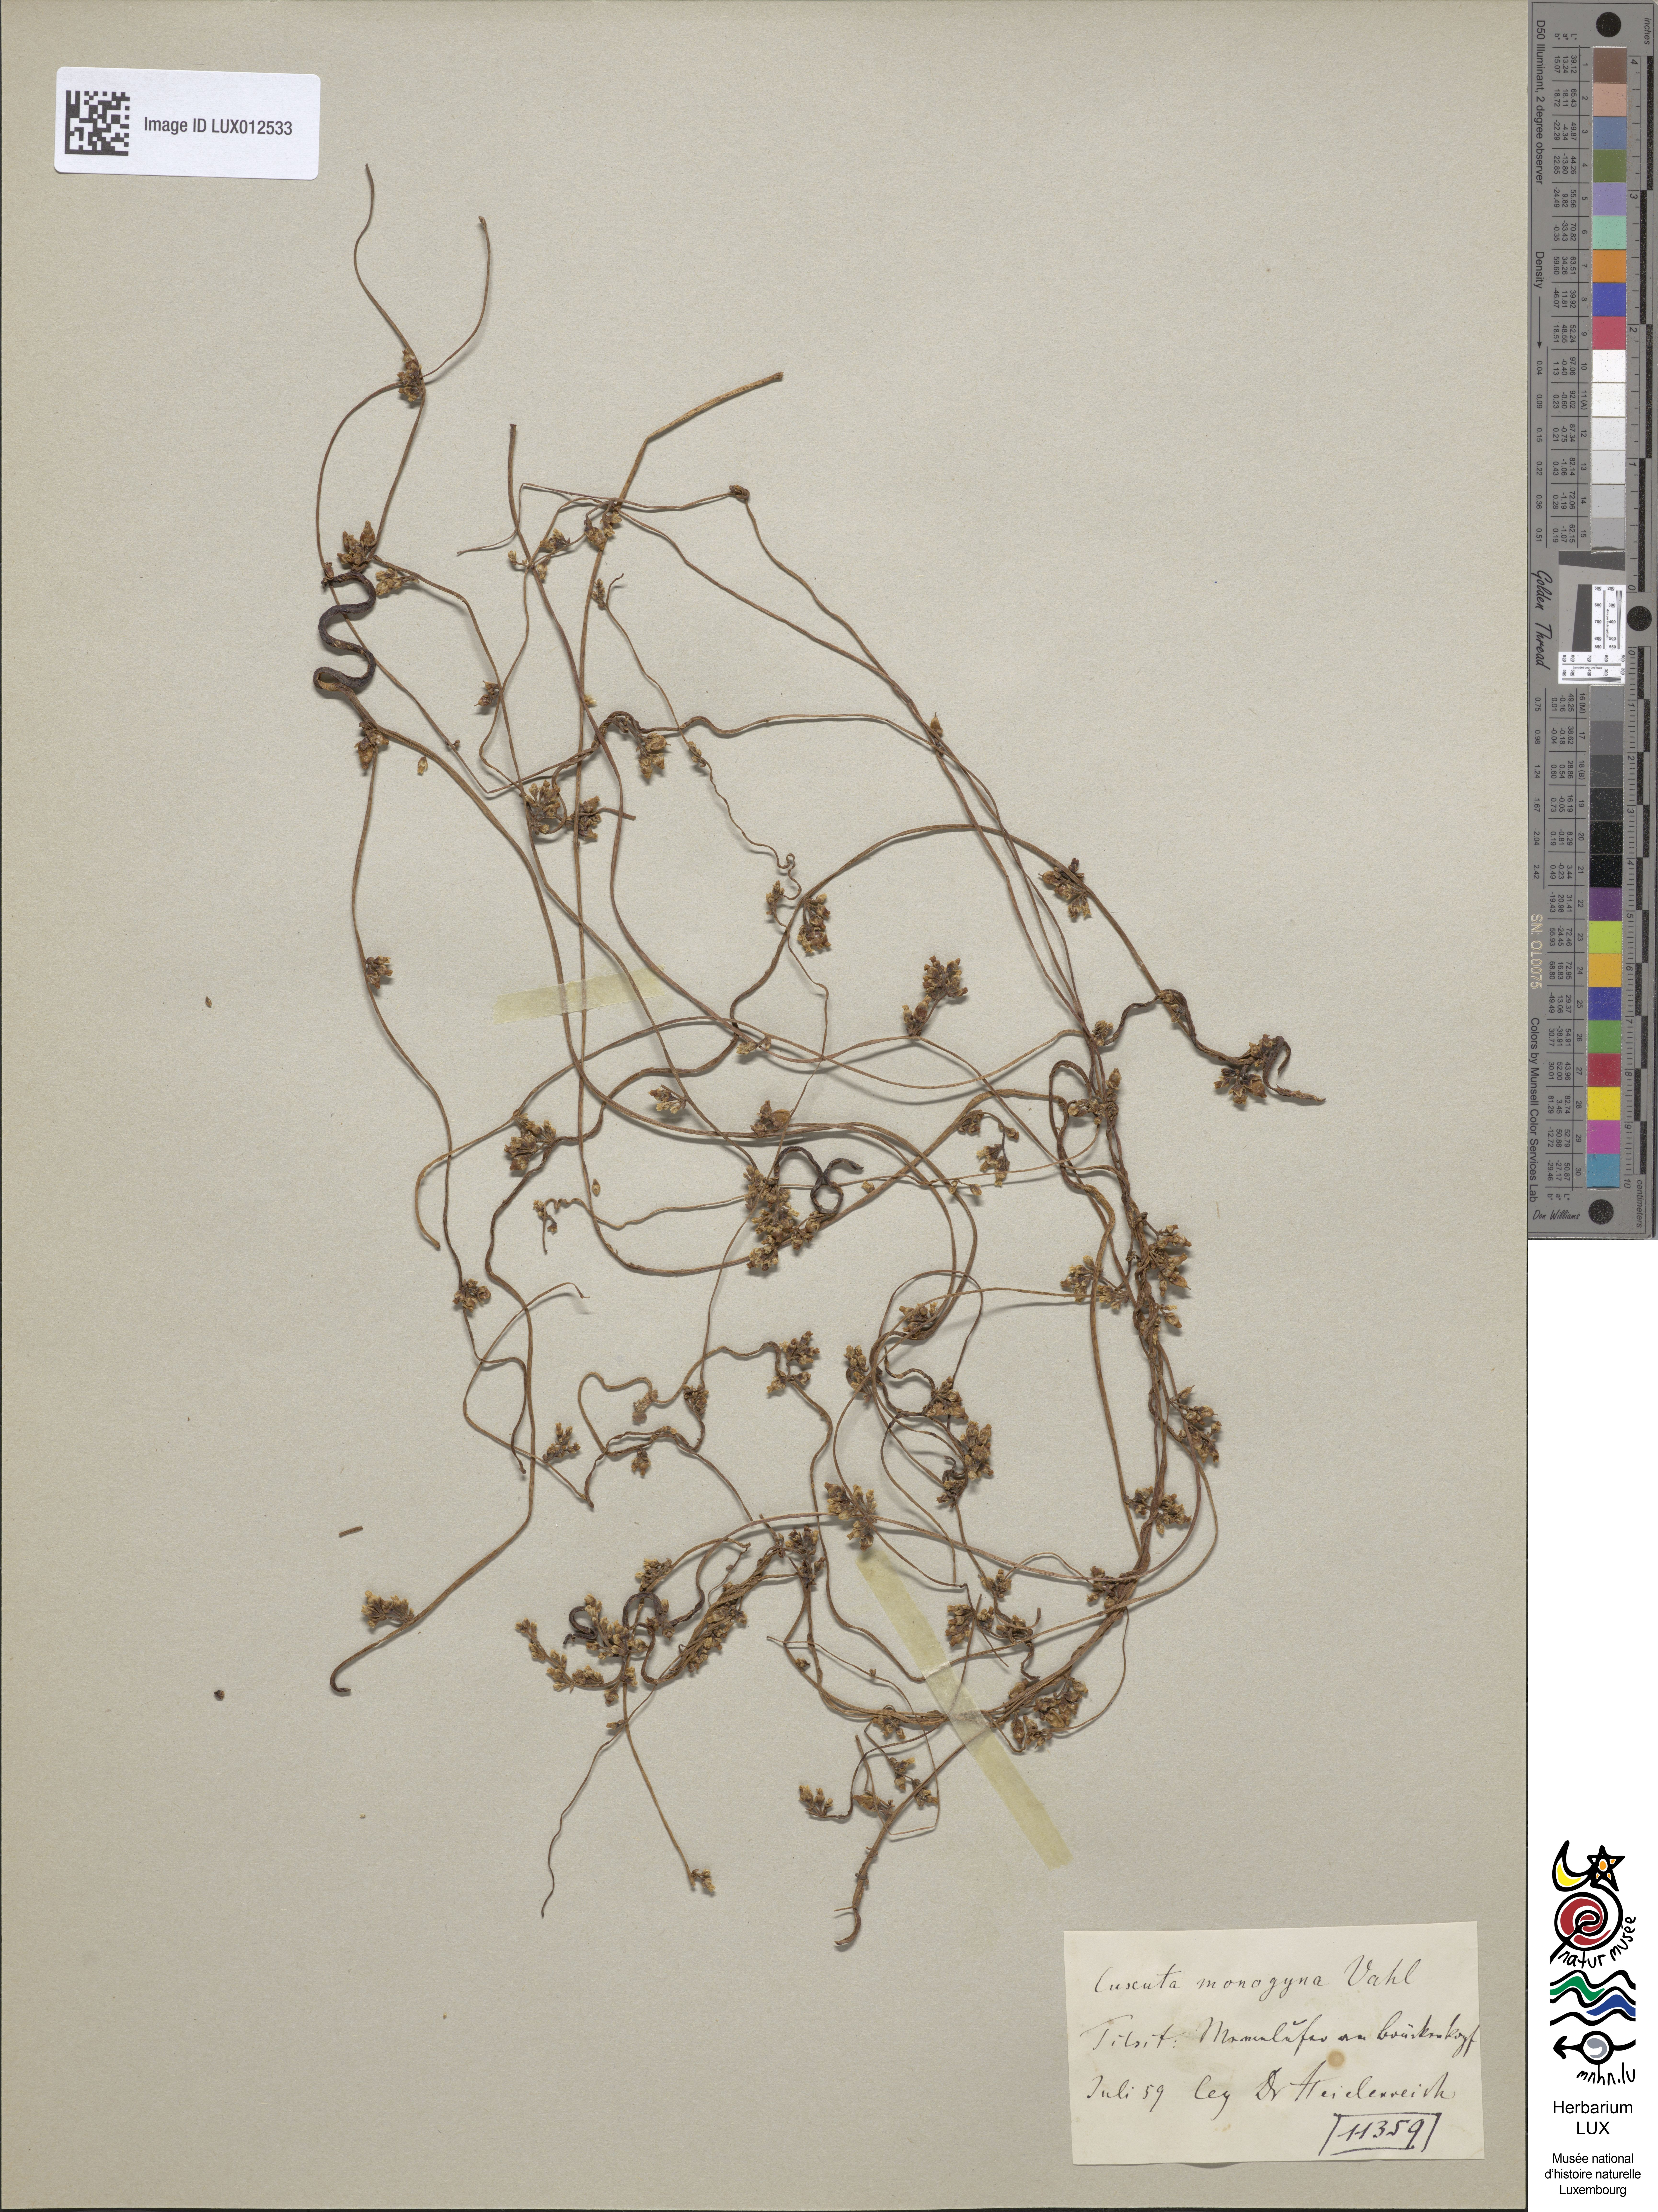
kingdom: Plantae
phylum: Tracheophyta
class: Magnoliopsida
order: Solanales
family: Convolvulaceae
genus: Cuscuta
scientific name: Cuscuta monogyna
